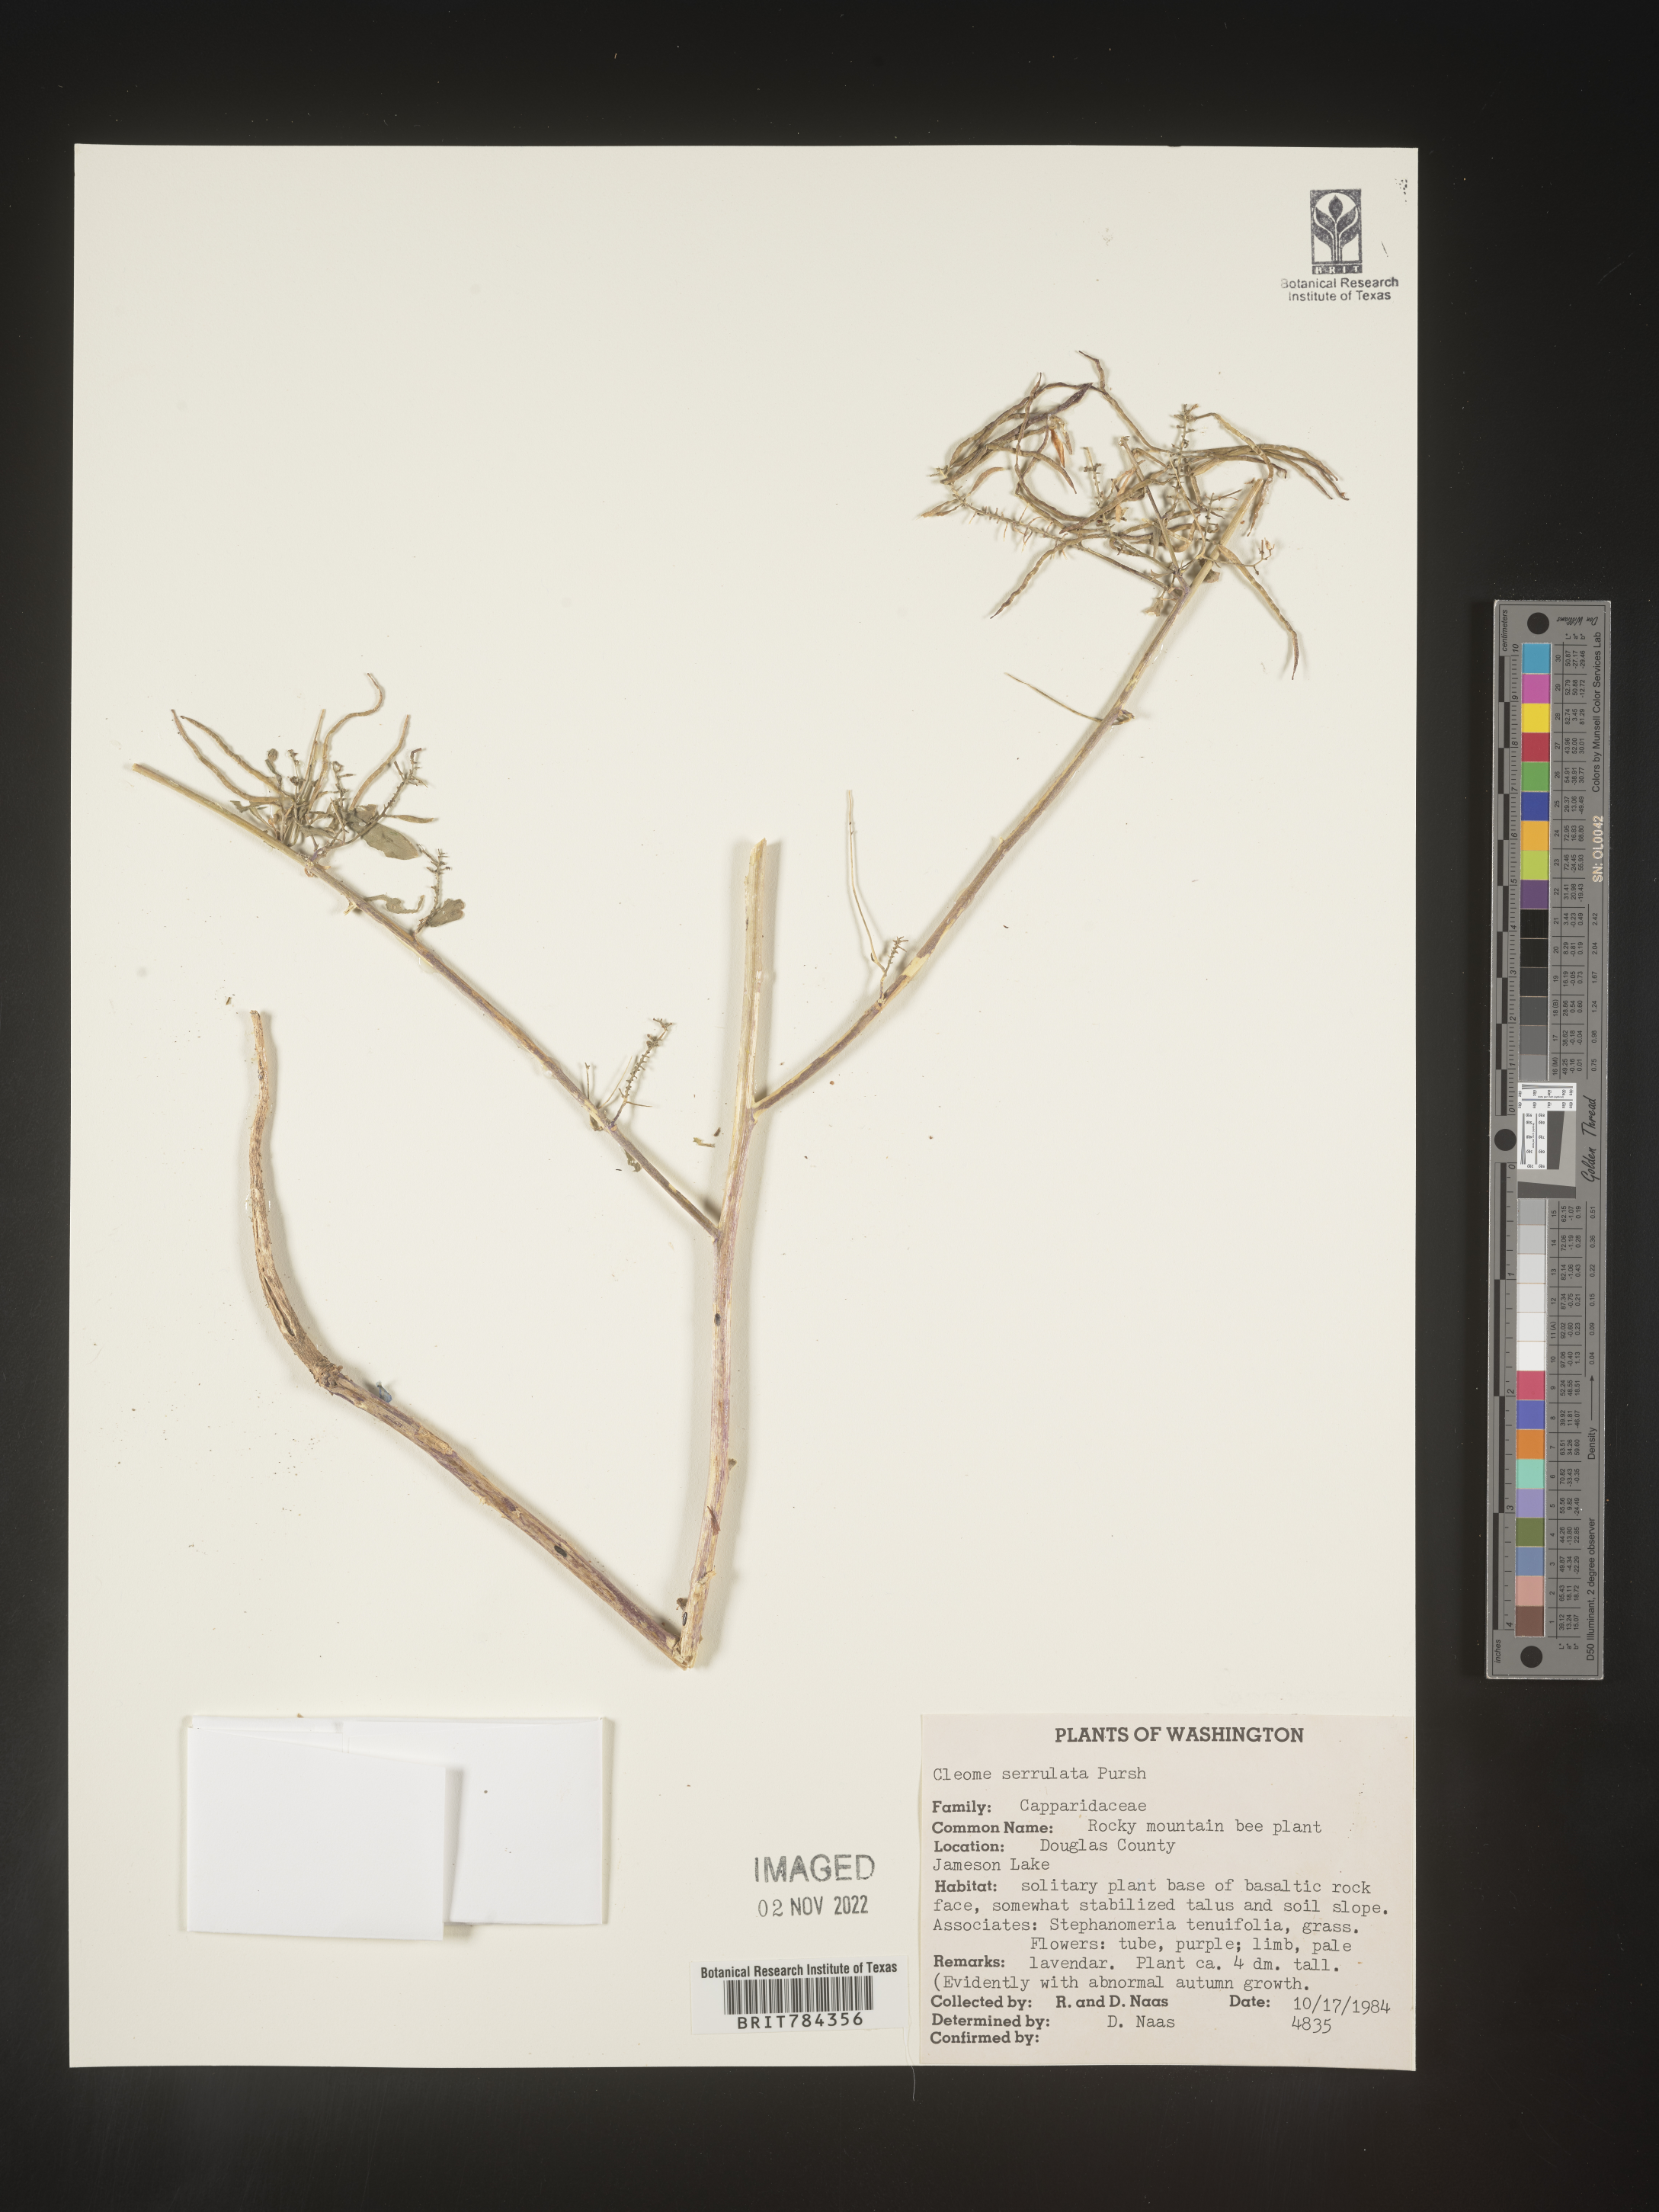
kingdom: Plantae
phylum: Tracheophyta
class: Magnoliopsida
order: Brassicales
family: Cleomaceae
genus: Cleomella
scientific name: Cleomella serrulata
